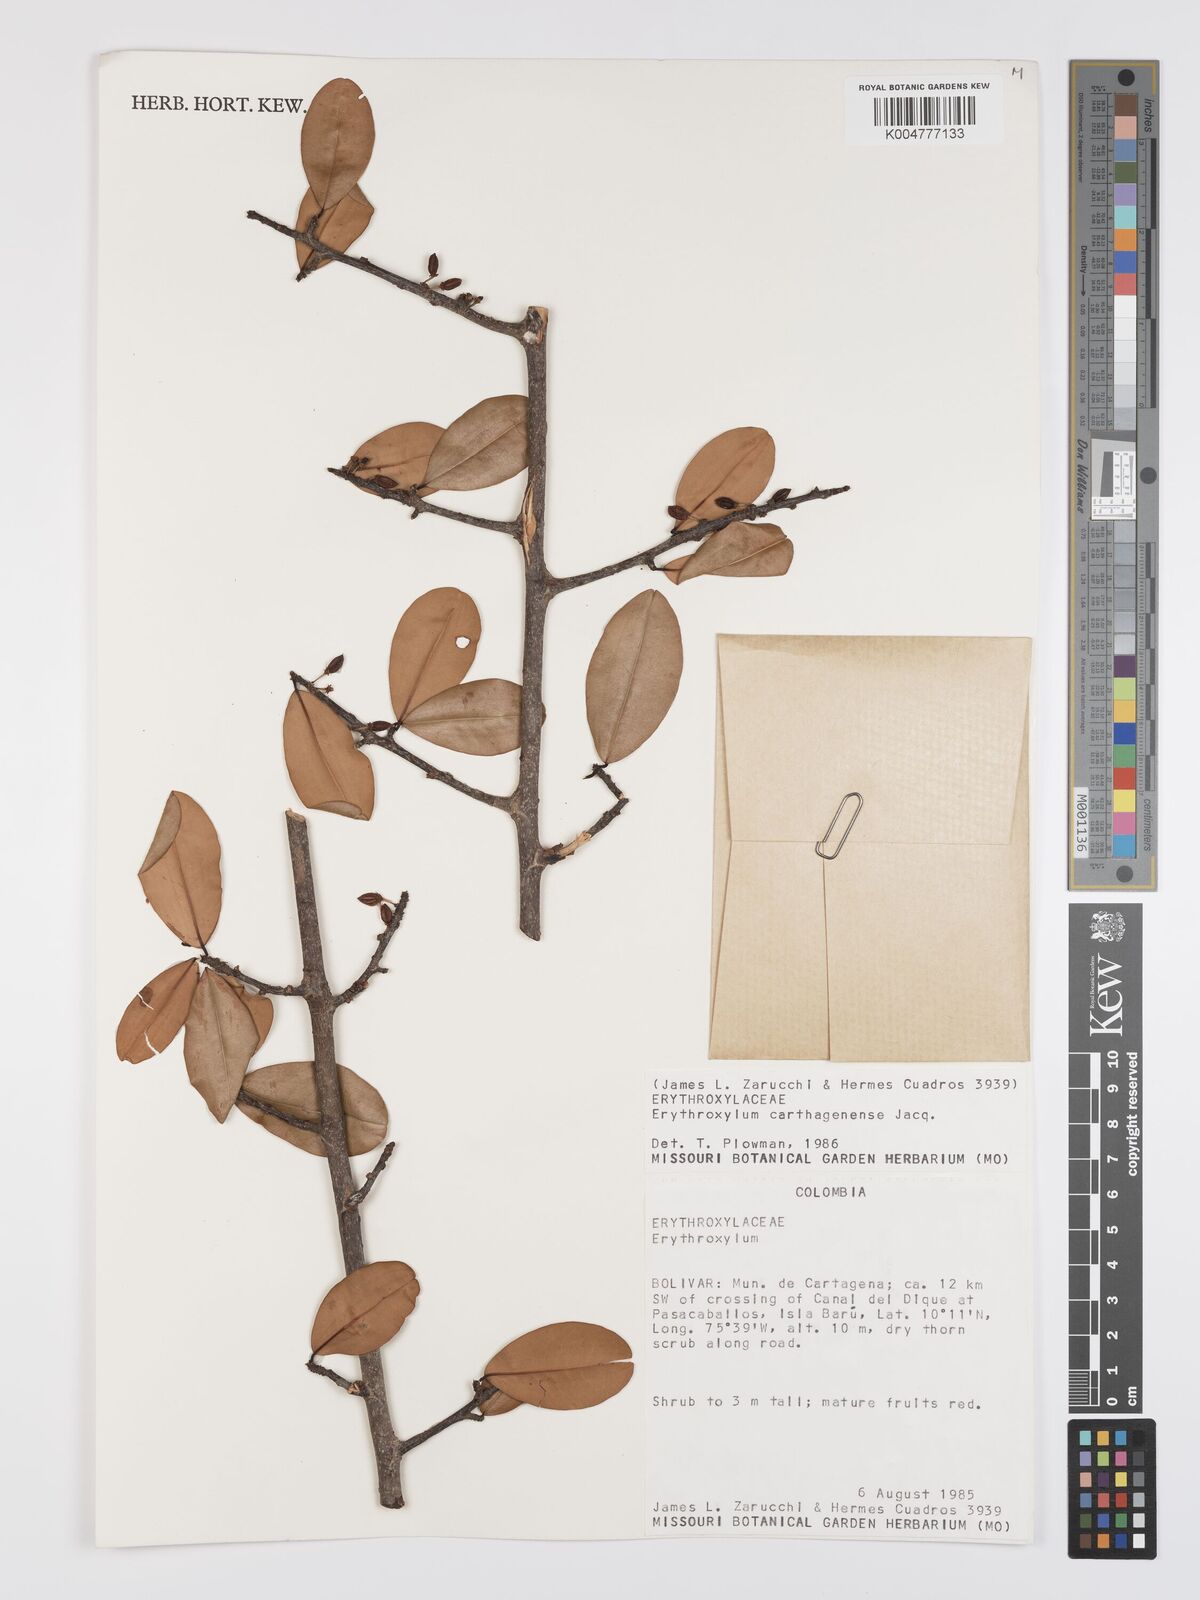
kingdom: Plantae
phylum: Tracheophyta
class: Magnoliopsida
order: Malpighiales
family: Erythroxylaceae
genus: Erythroxylum
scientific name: Erythroxylum areolatum
